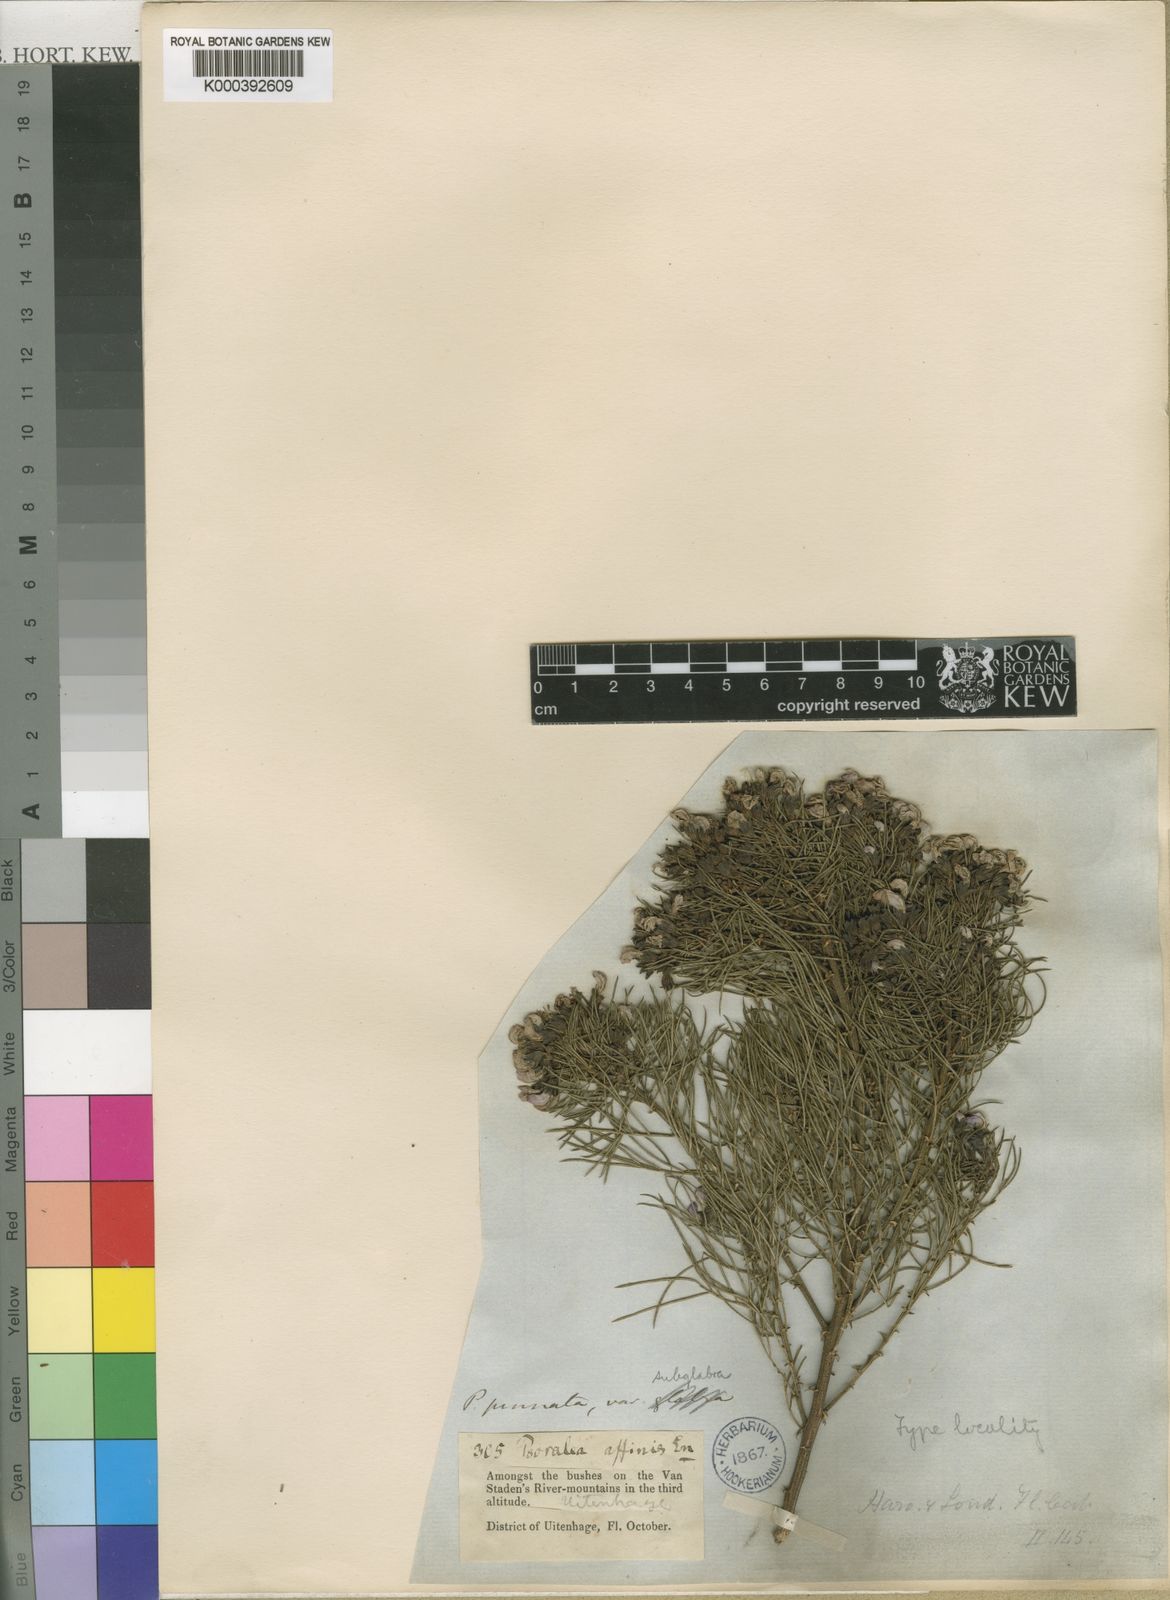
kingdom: Plantae
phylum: Tracheophyta
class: Magnoliopsida
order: Fabales
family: Fabaceae
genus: Psoralea
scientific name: Psoralea affinis
